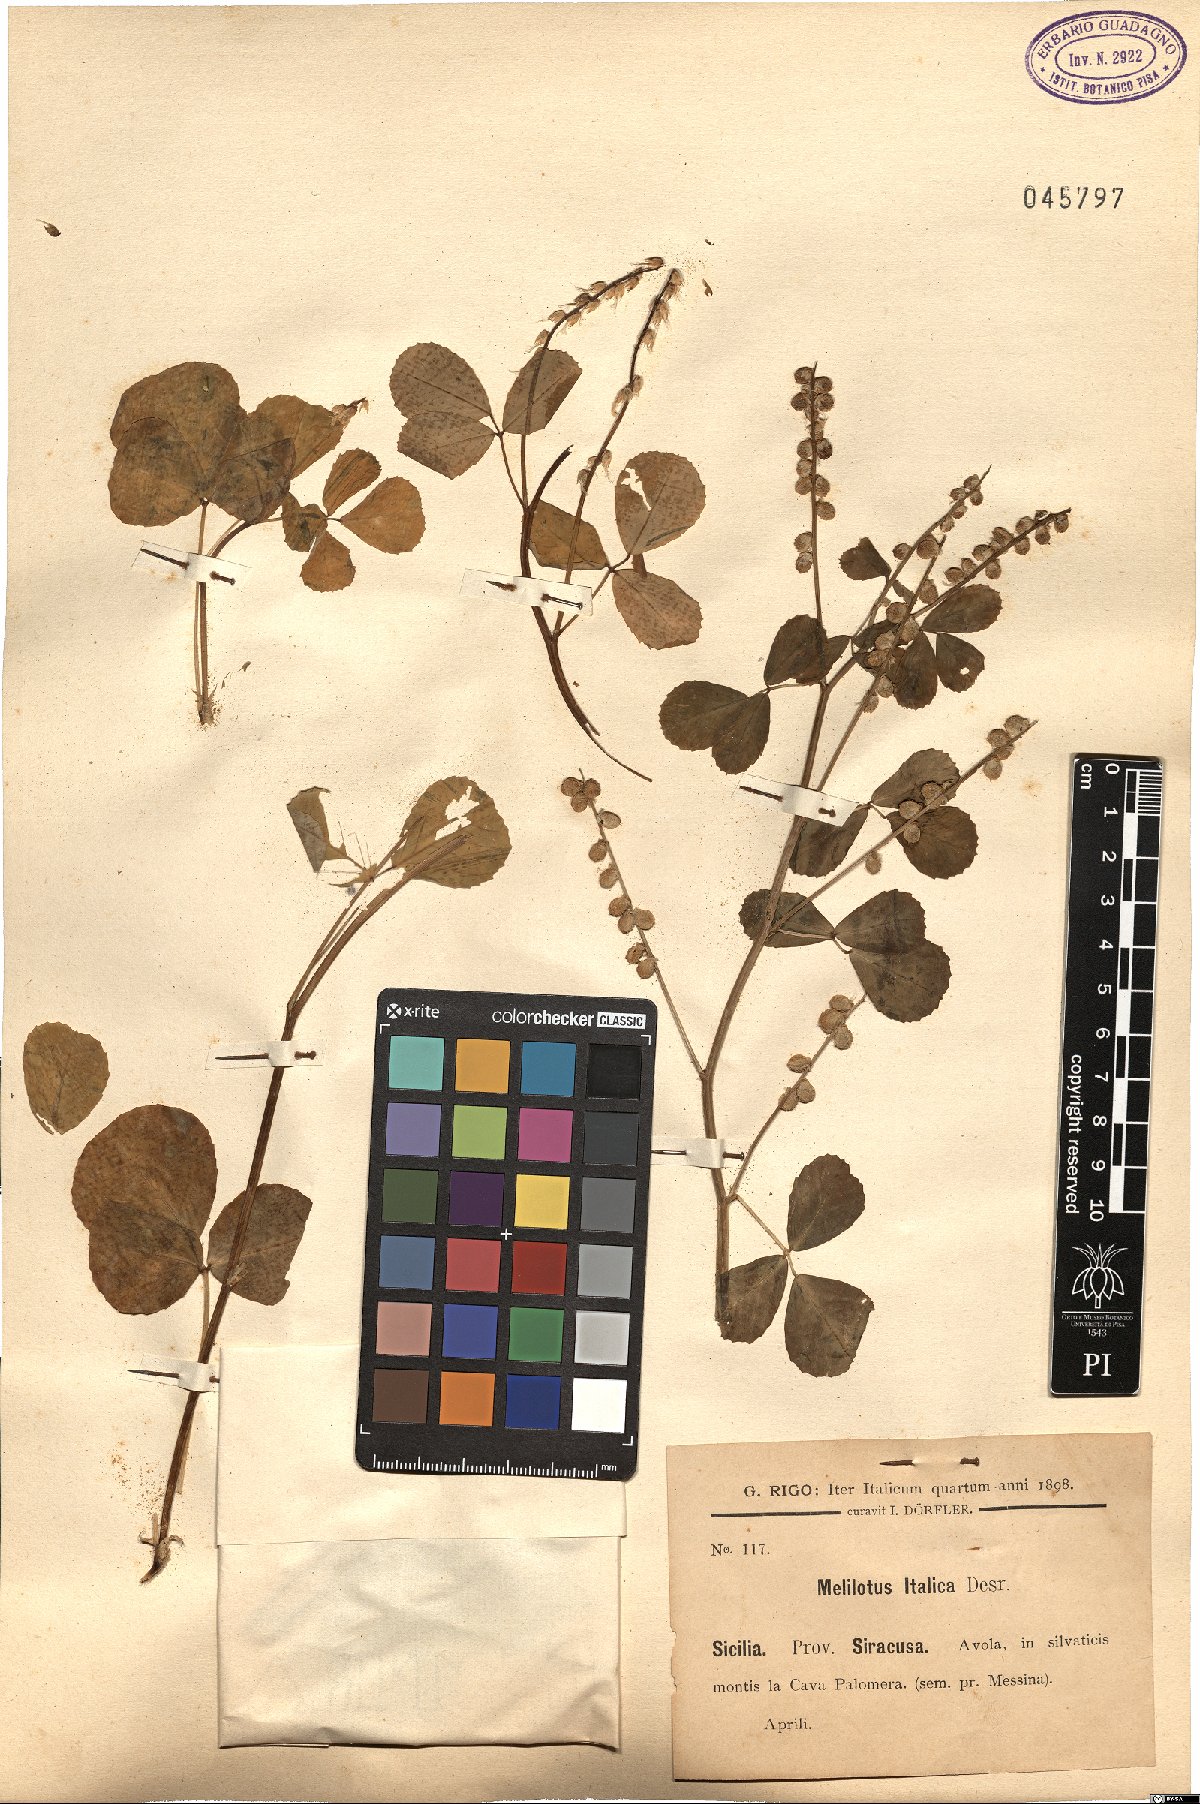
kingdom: Plantae
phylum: Tracheophyta
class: Magnoliopsida
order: Fabales
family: Fabaceae
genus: Melilotus
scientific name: Melilotus italicus
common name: Italian melilot
